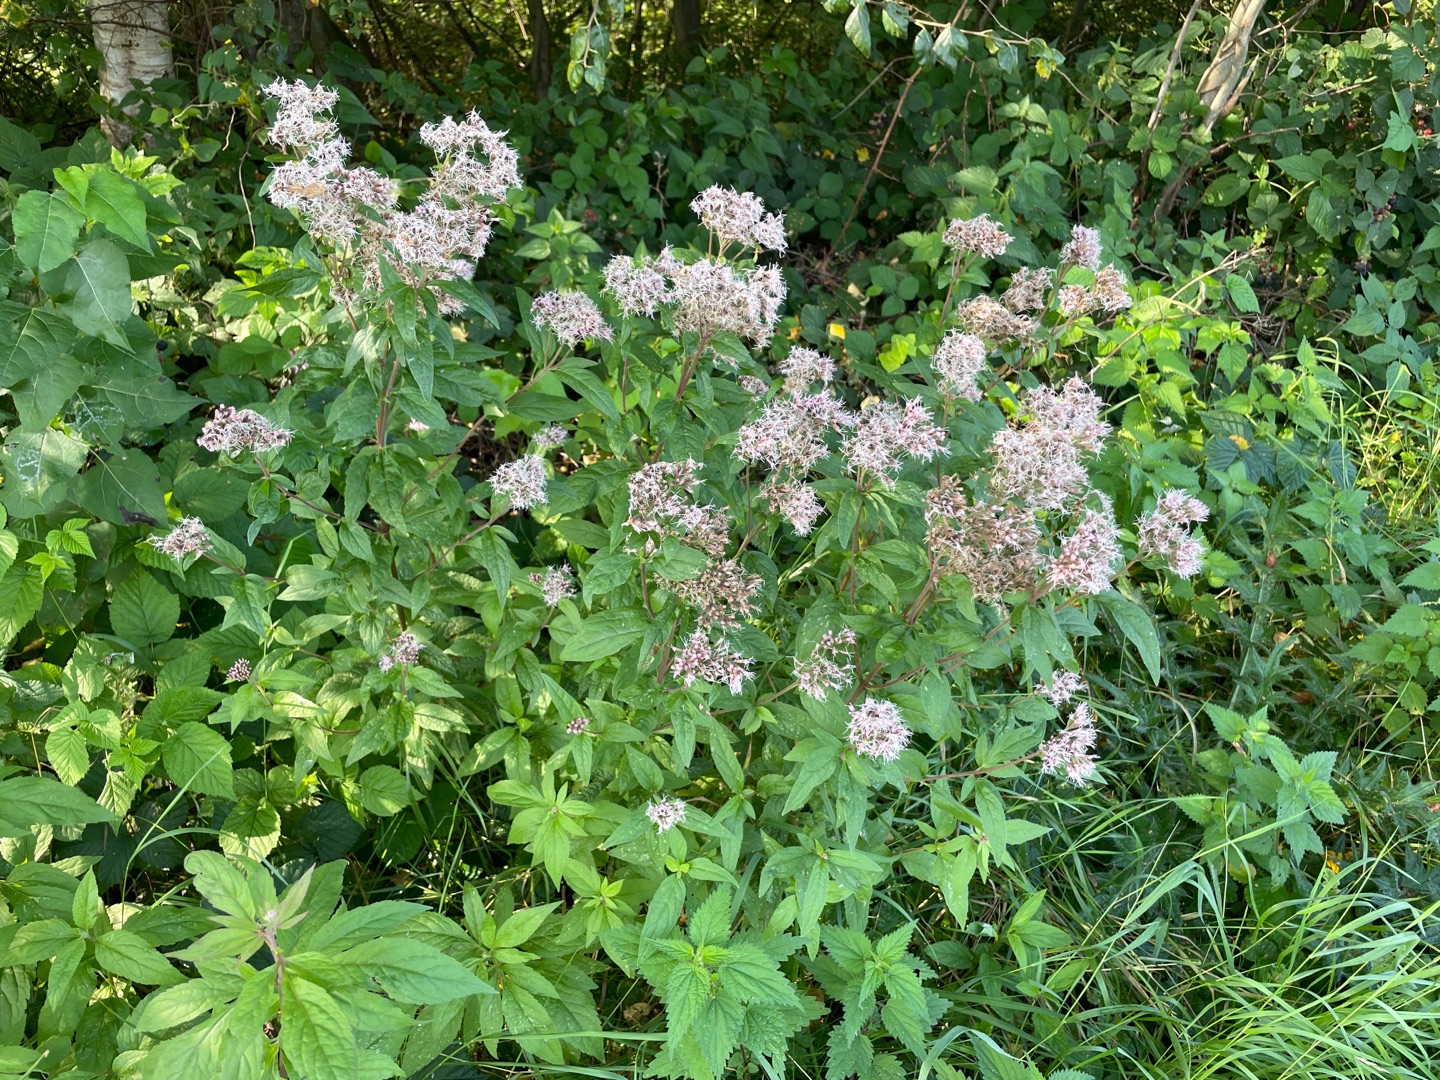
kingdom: Plantae
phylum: Tracheophyta
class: Magnoliopsida
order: Asterales
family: Asteraceae
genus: Eupatorium
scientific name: Eupatorium cannabinum
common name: Hjortetrøst
